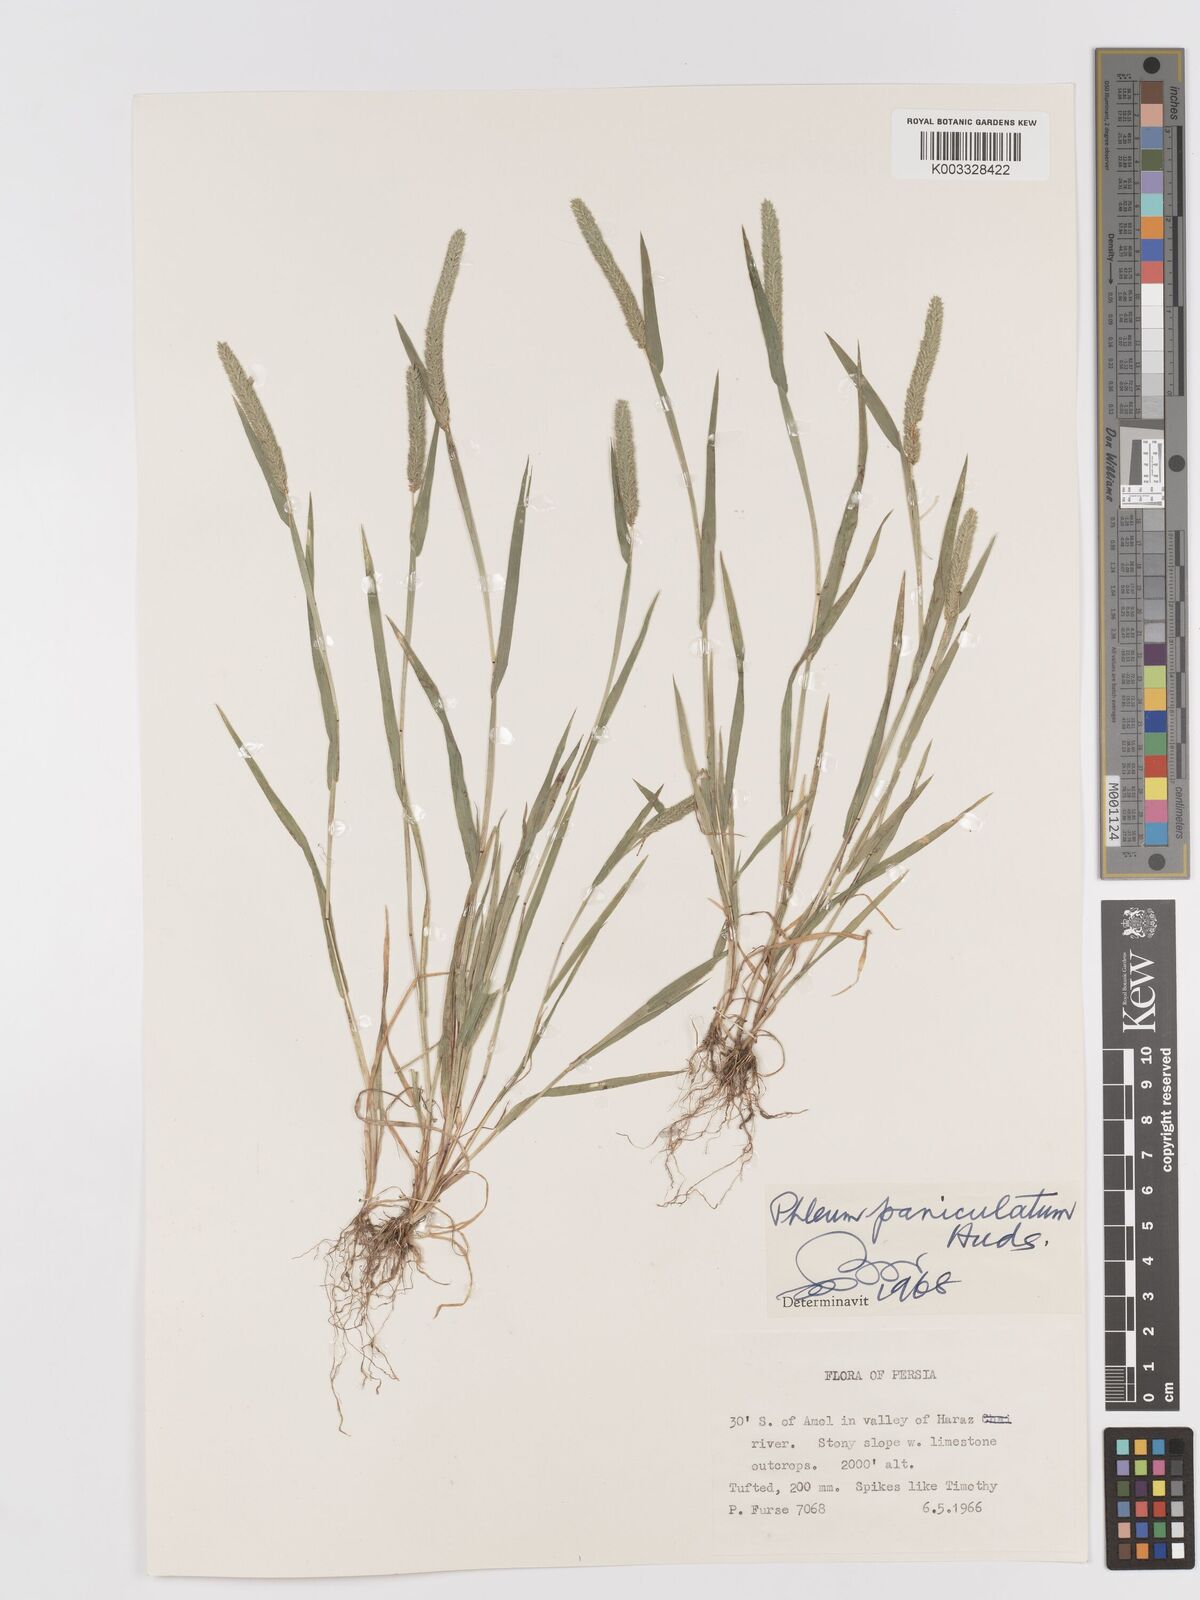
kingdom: Plantae
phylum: Tracheophyta
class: Liliopsida
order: Poales
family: Poaceae
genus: Phleum
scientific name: Phleum paniculatum
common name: British timothy
